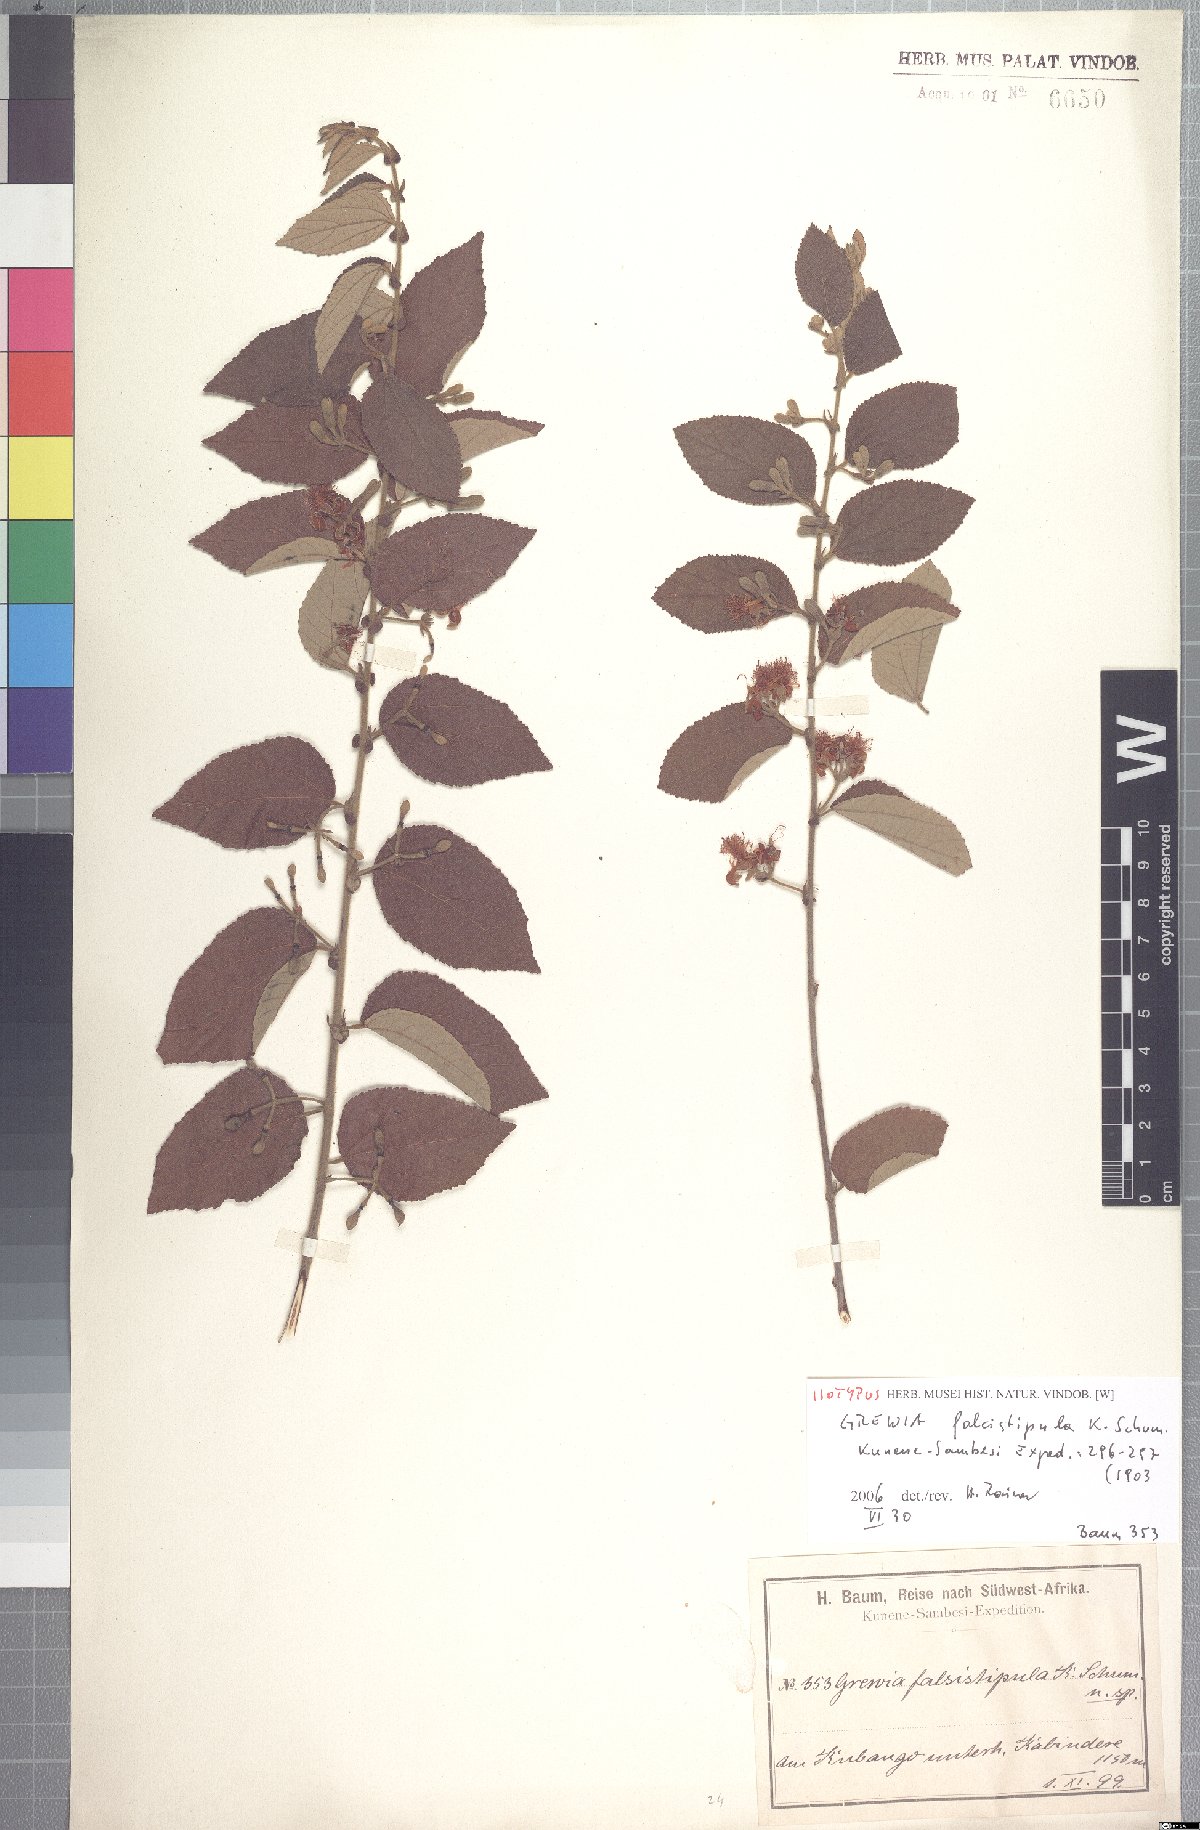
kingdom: Plantae
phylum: Tracheophyta
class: Magnoliopsida
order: Malvales
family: Malvaceae
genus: Grewia
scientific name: Grewia falcistipula
